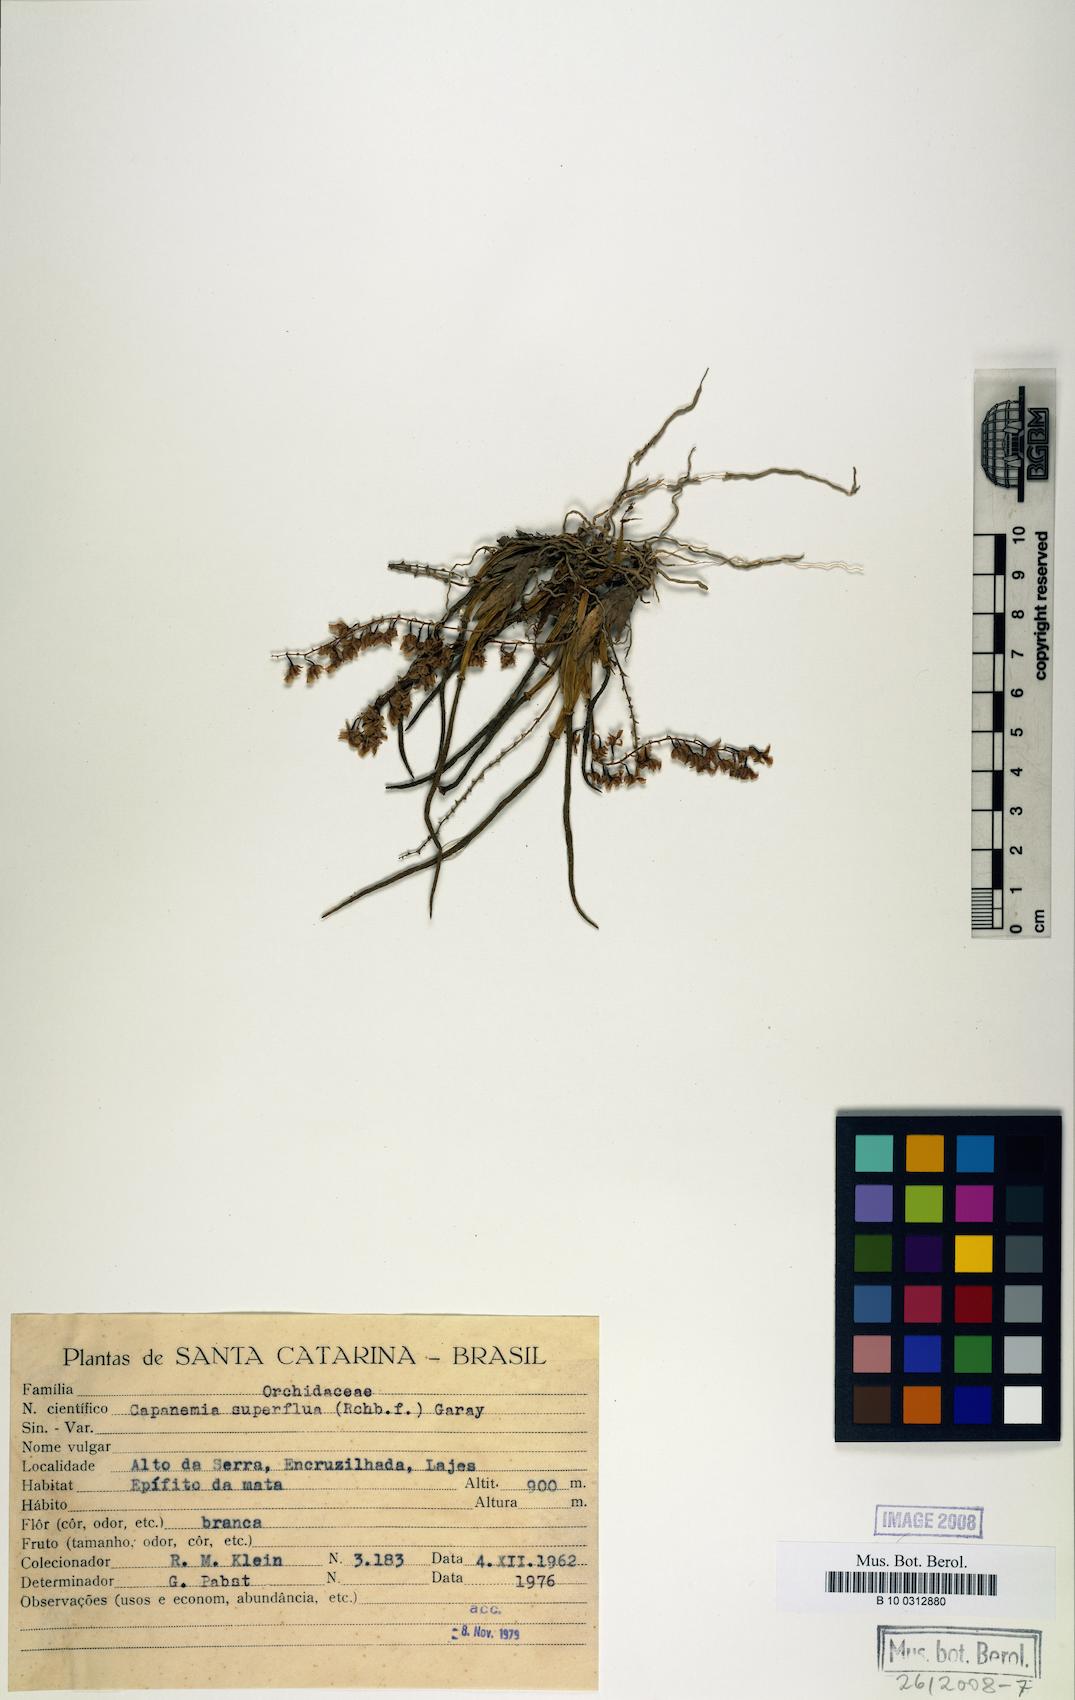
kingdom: Plantae
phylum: Tracheophyta
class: Liliopsida
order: Asparagales
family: Orchidaceae
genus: Capanemia
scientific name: Capanemia superflua
